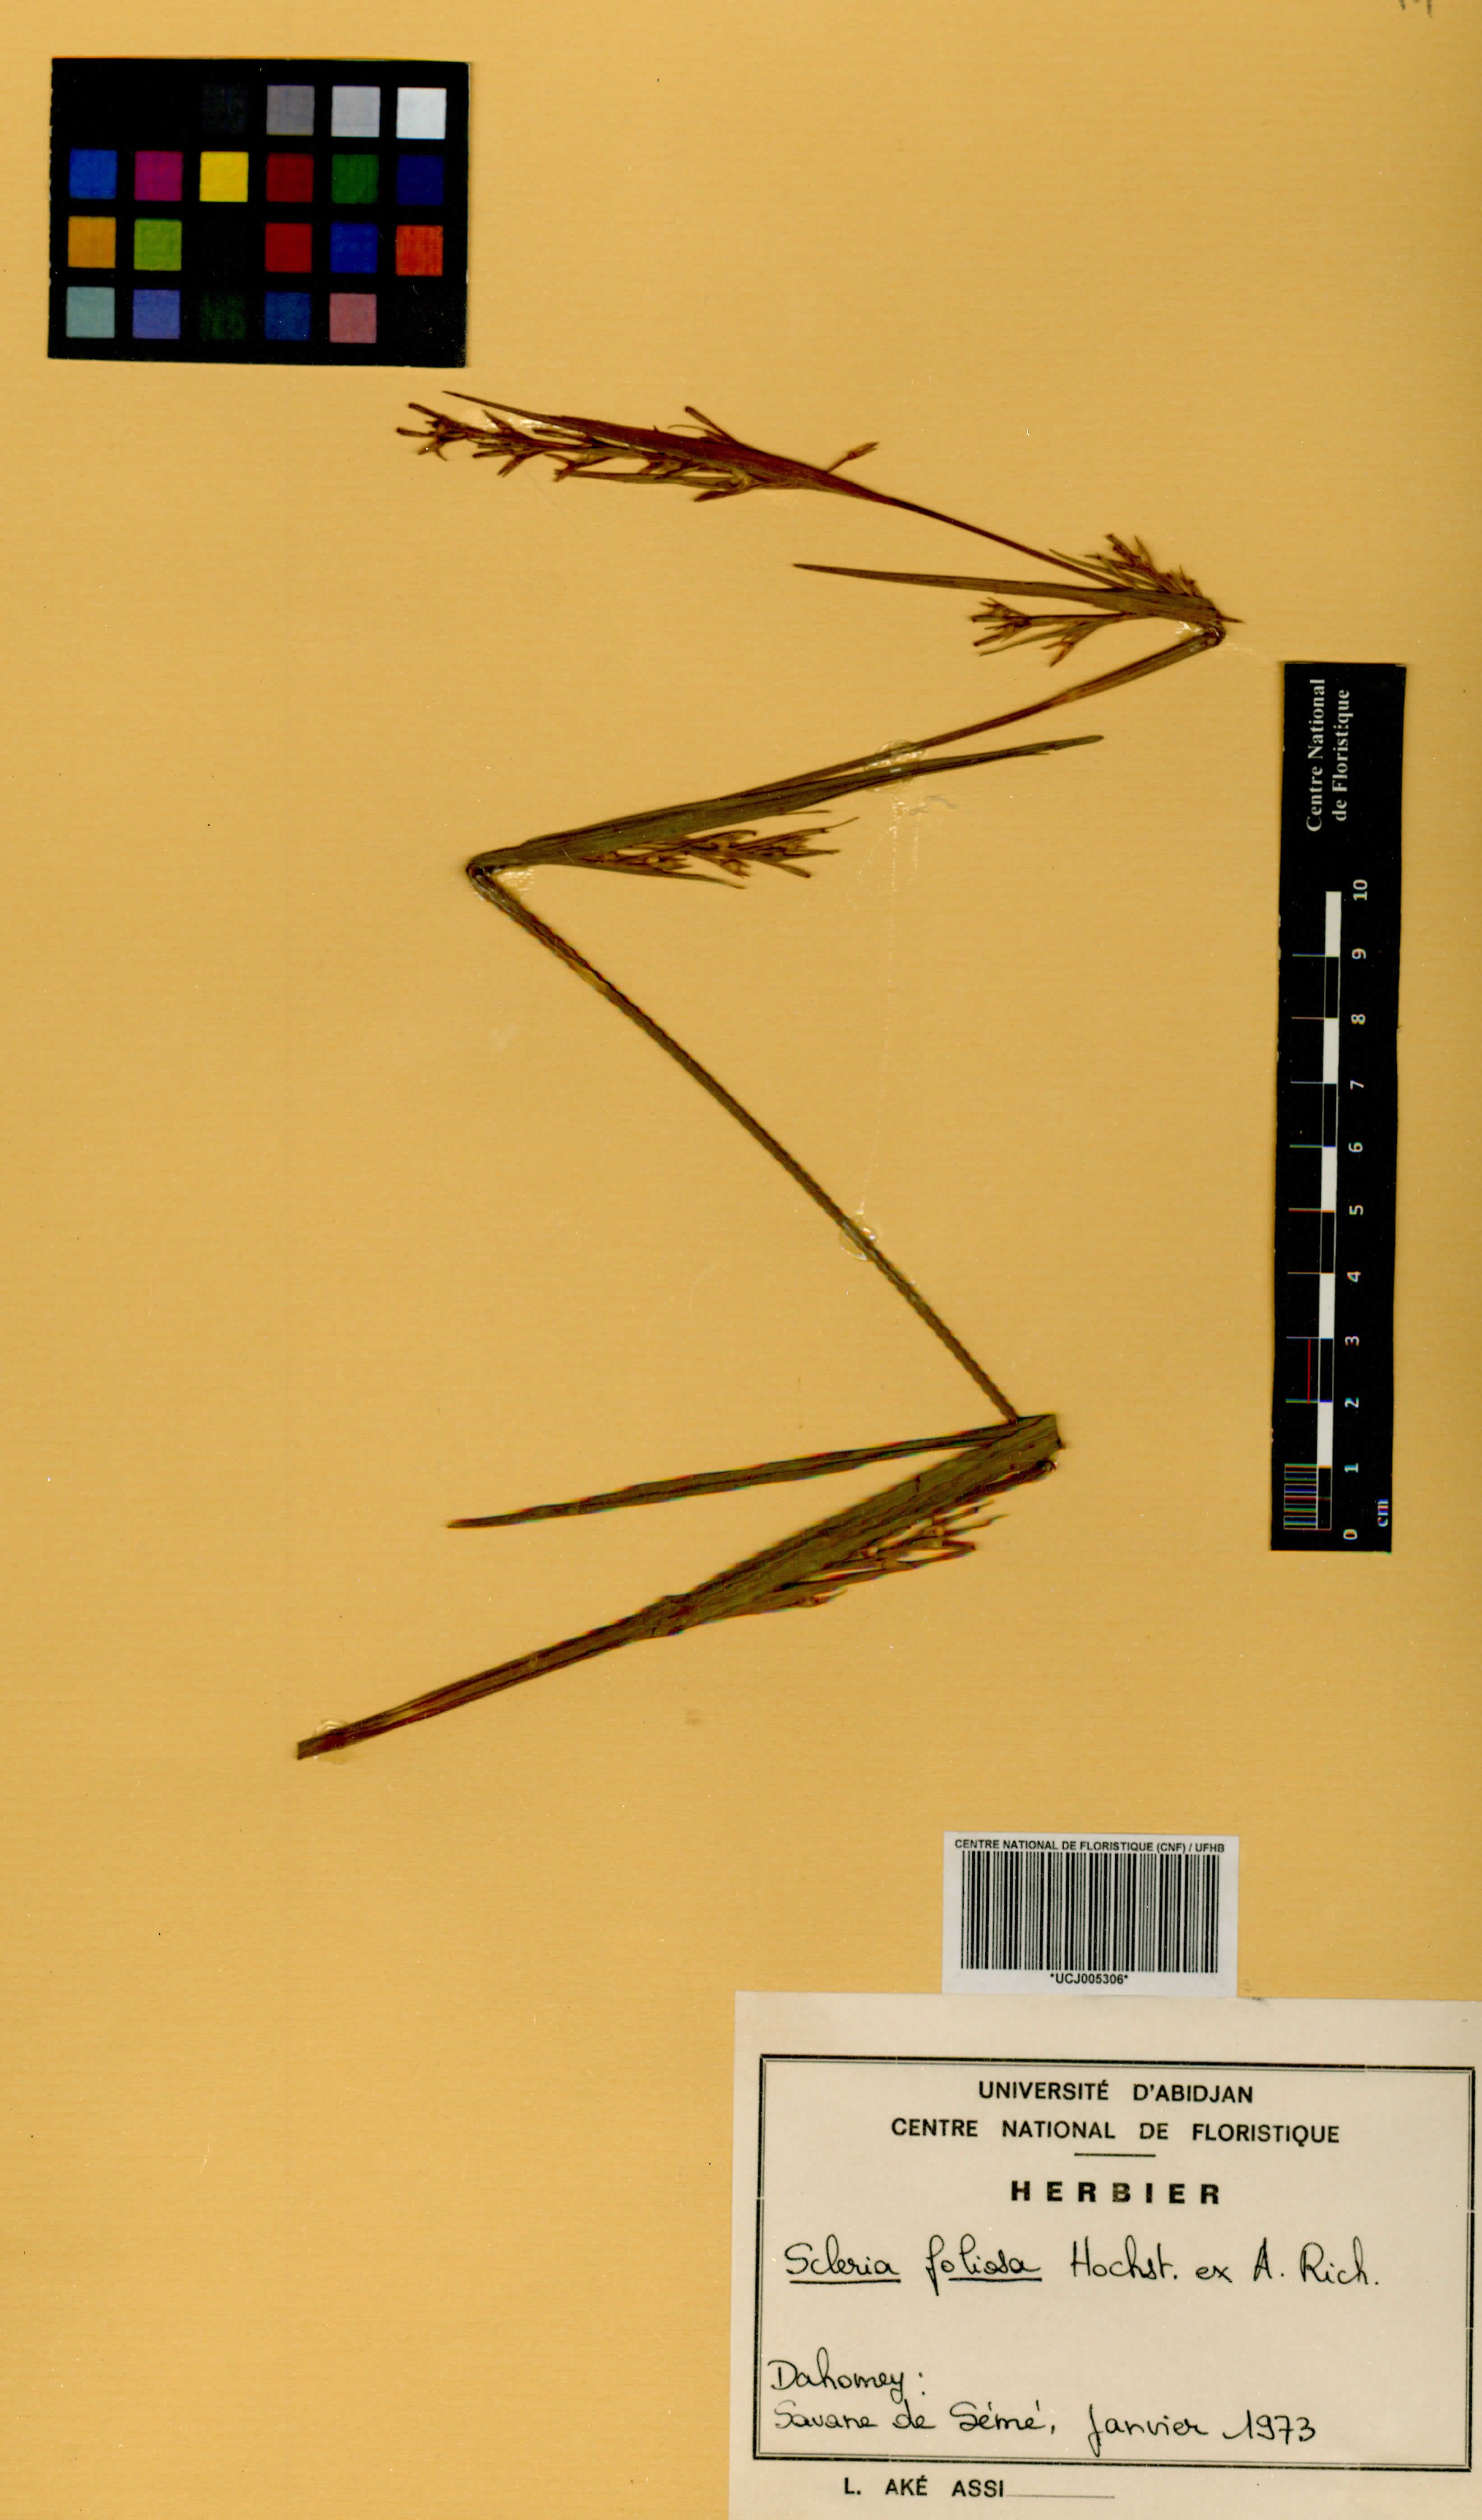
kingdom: Plantae
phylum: Tracheophyta
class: Liliopsida
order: Poales
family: Cyperaceae
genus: Scleria
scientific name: Scleria foliosa
